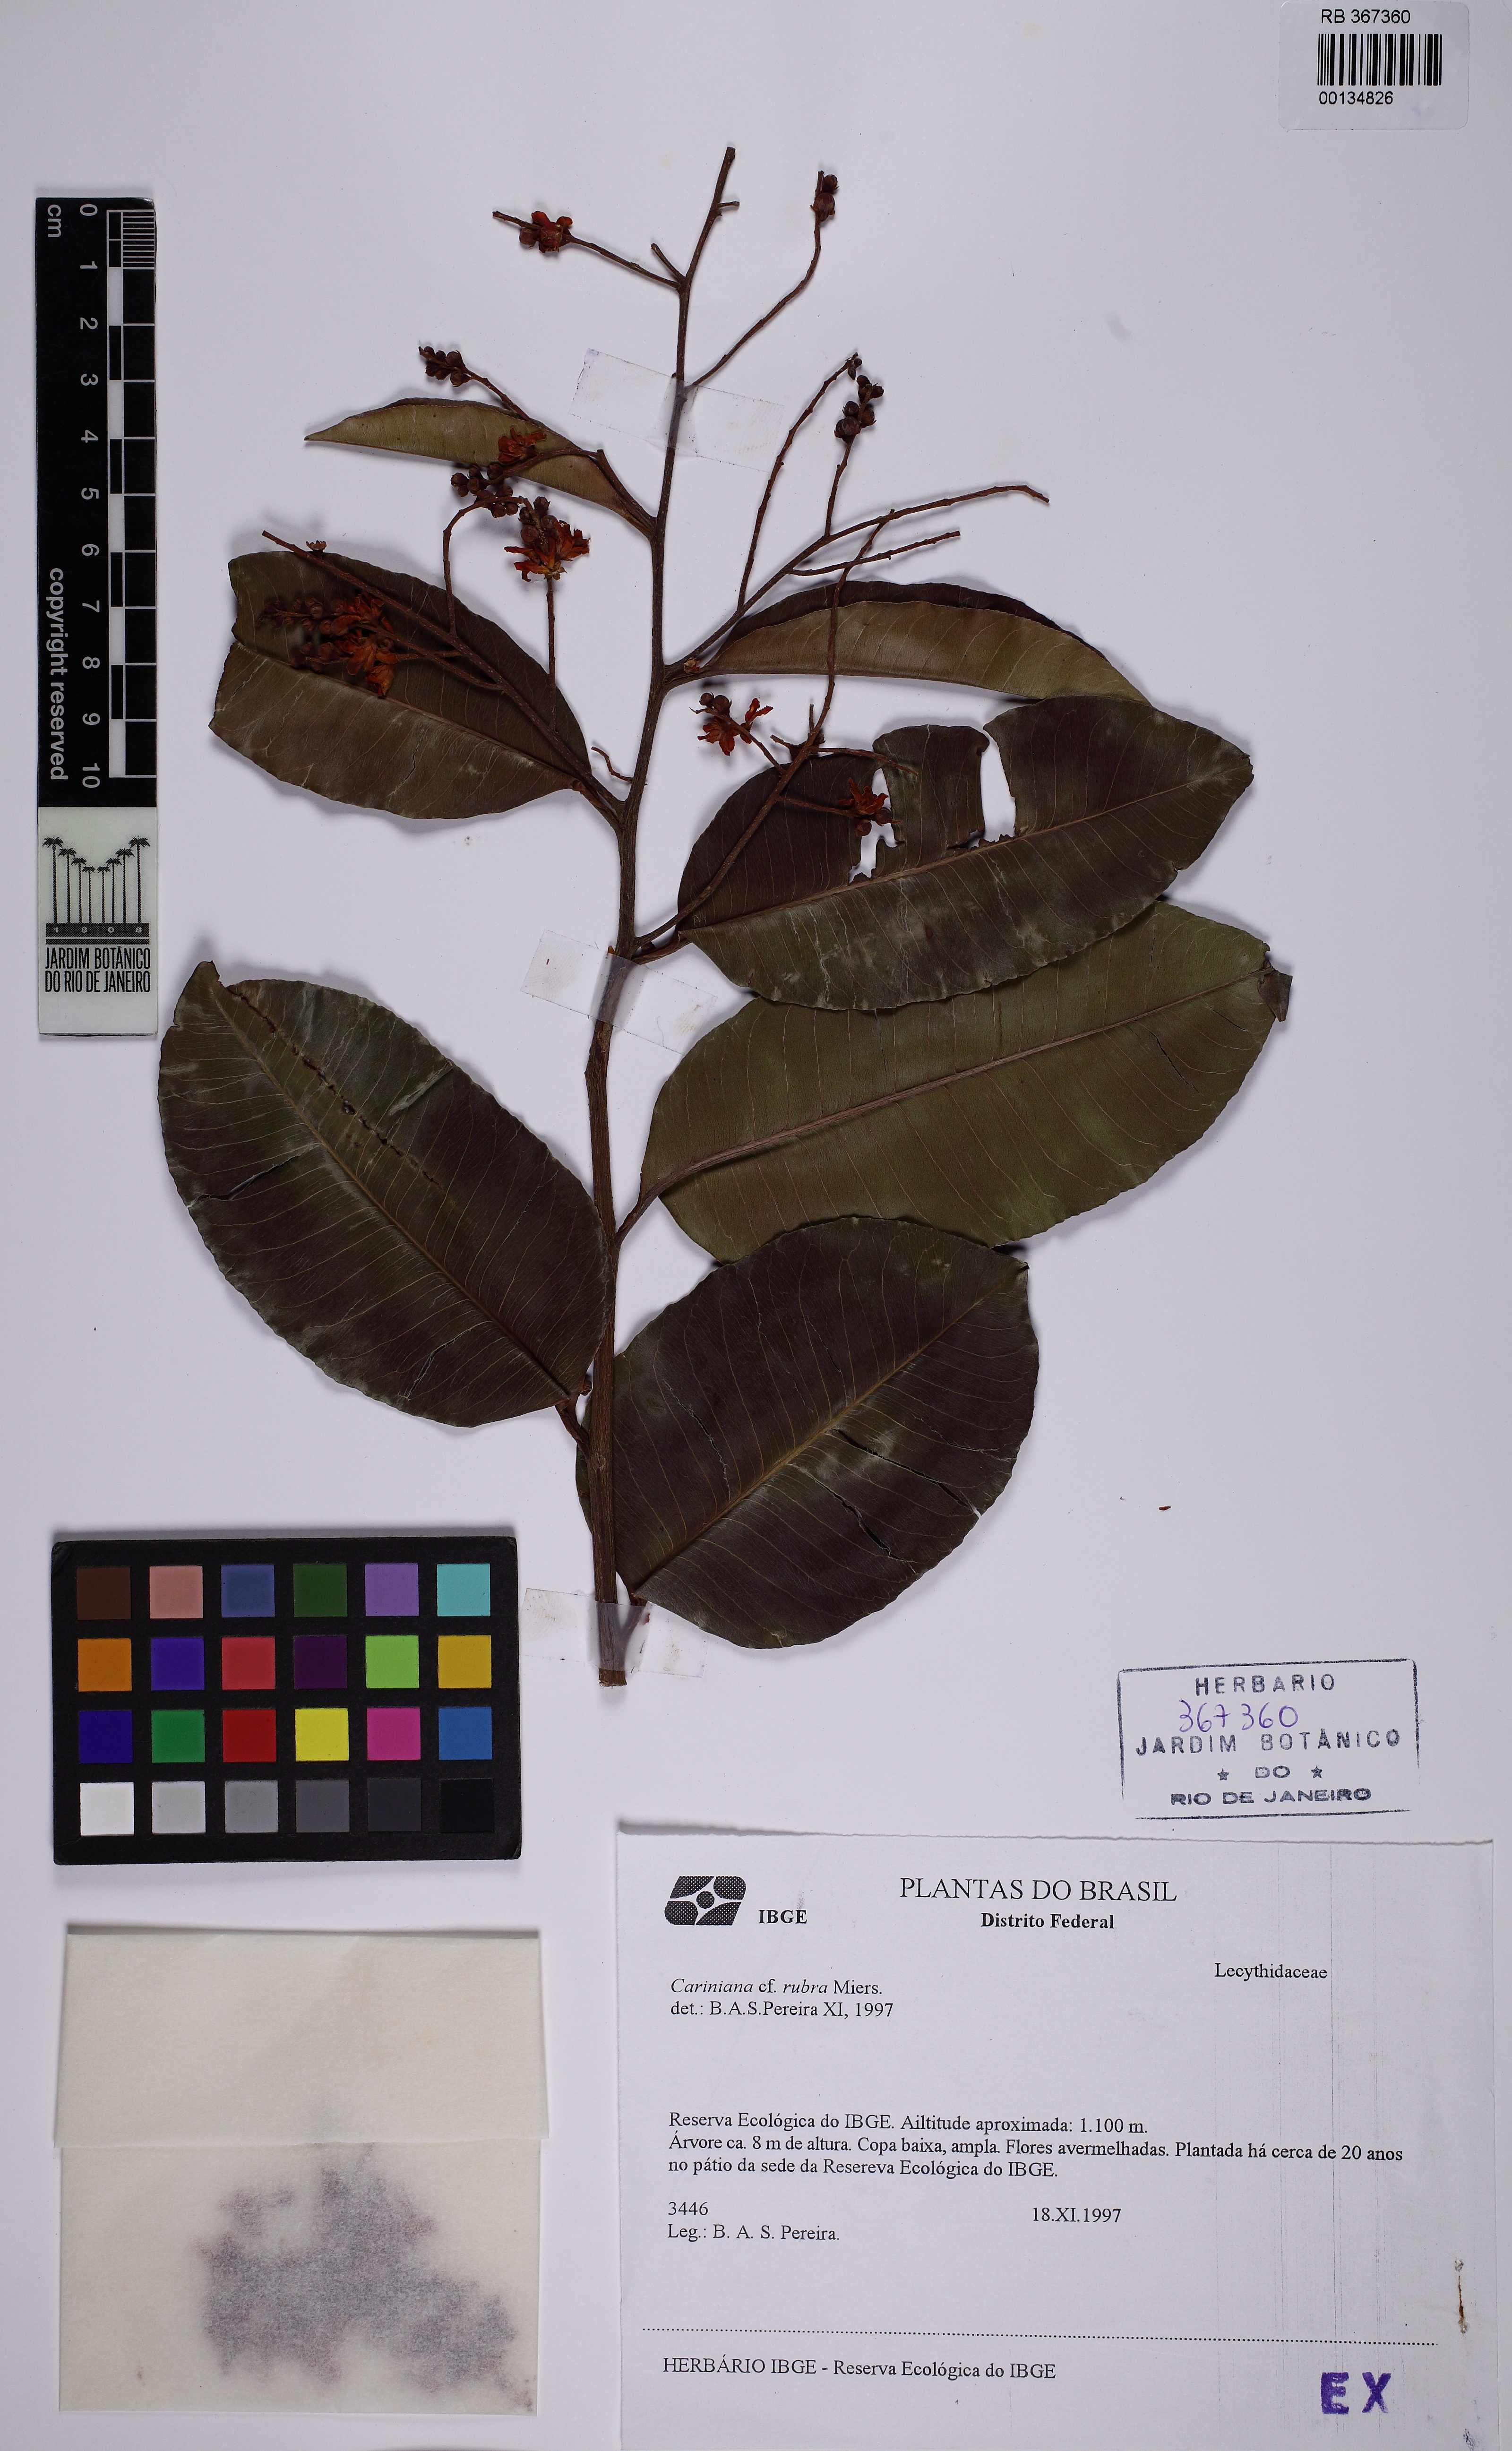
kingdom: Plantae
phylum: Tracheophyta
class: Magnoliopsida
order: Ericales
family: Lecythidaceae
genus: Cariniana
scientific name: Cariniana rubra
